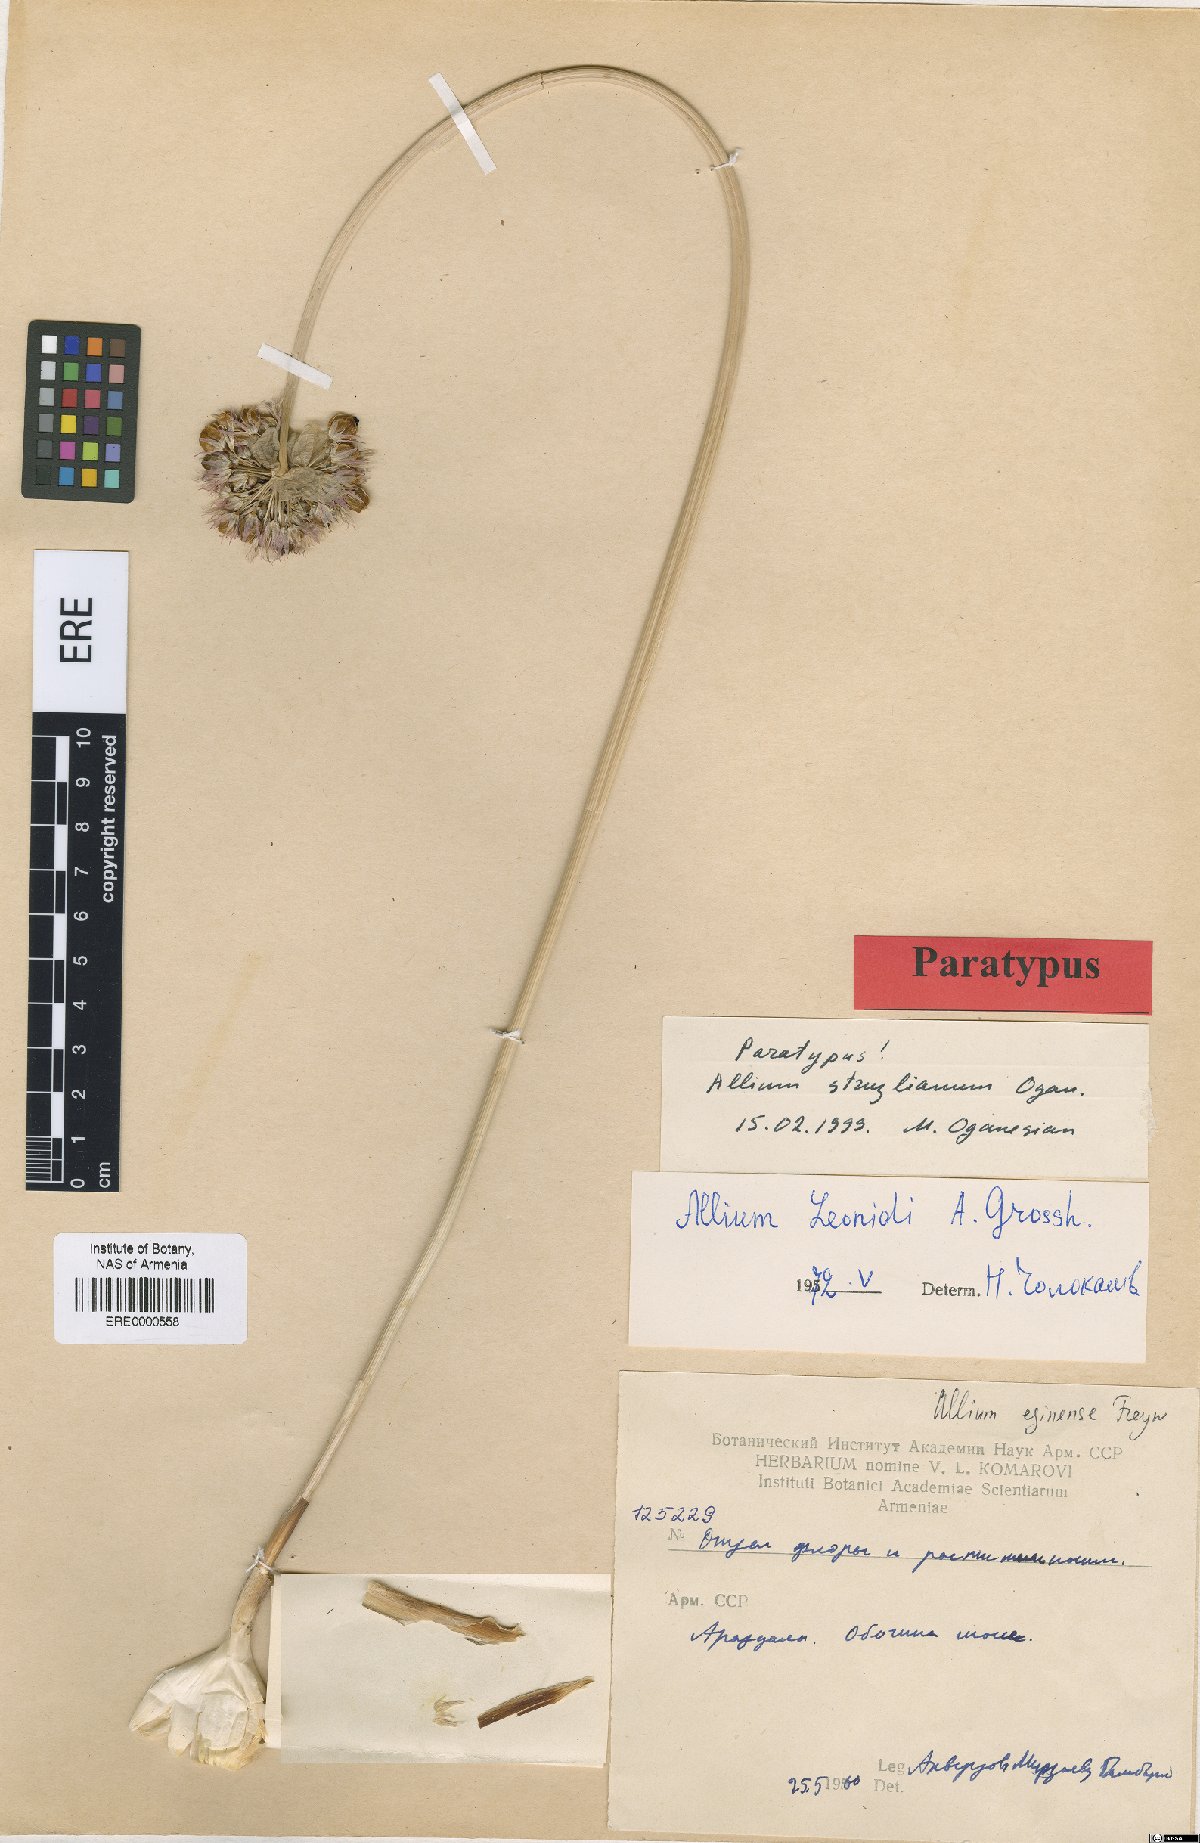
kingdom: Plantae
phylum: Tracheophyta
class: Liliopsida
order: Asparagales
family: Amaryllidaceae
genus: Allium
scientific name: Allium struzlianum
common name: Struzl's onion
